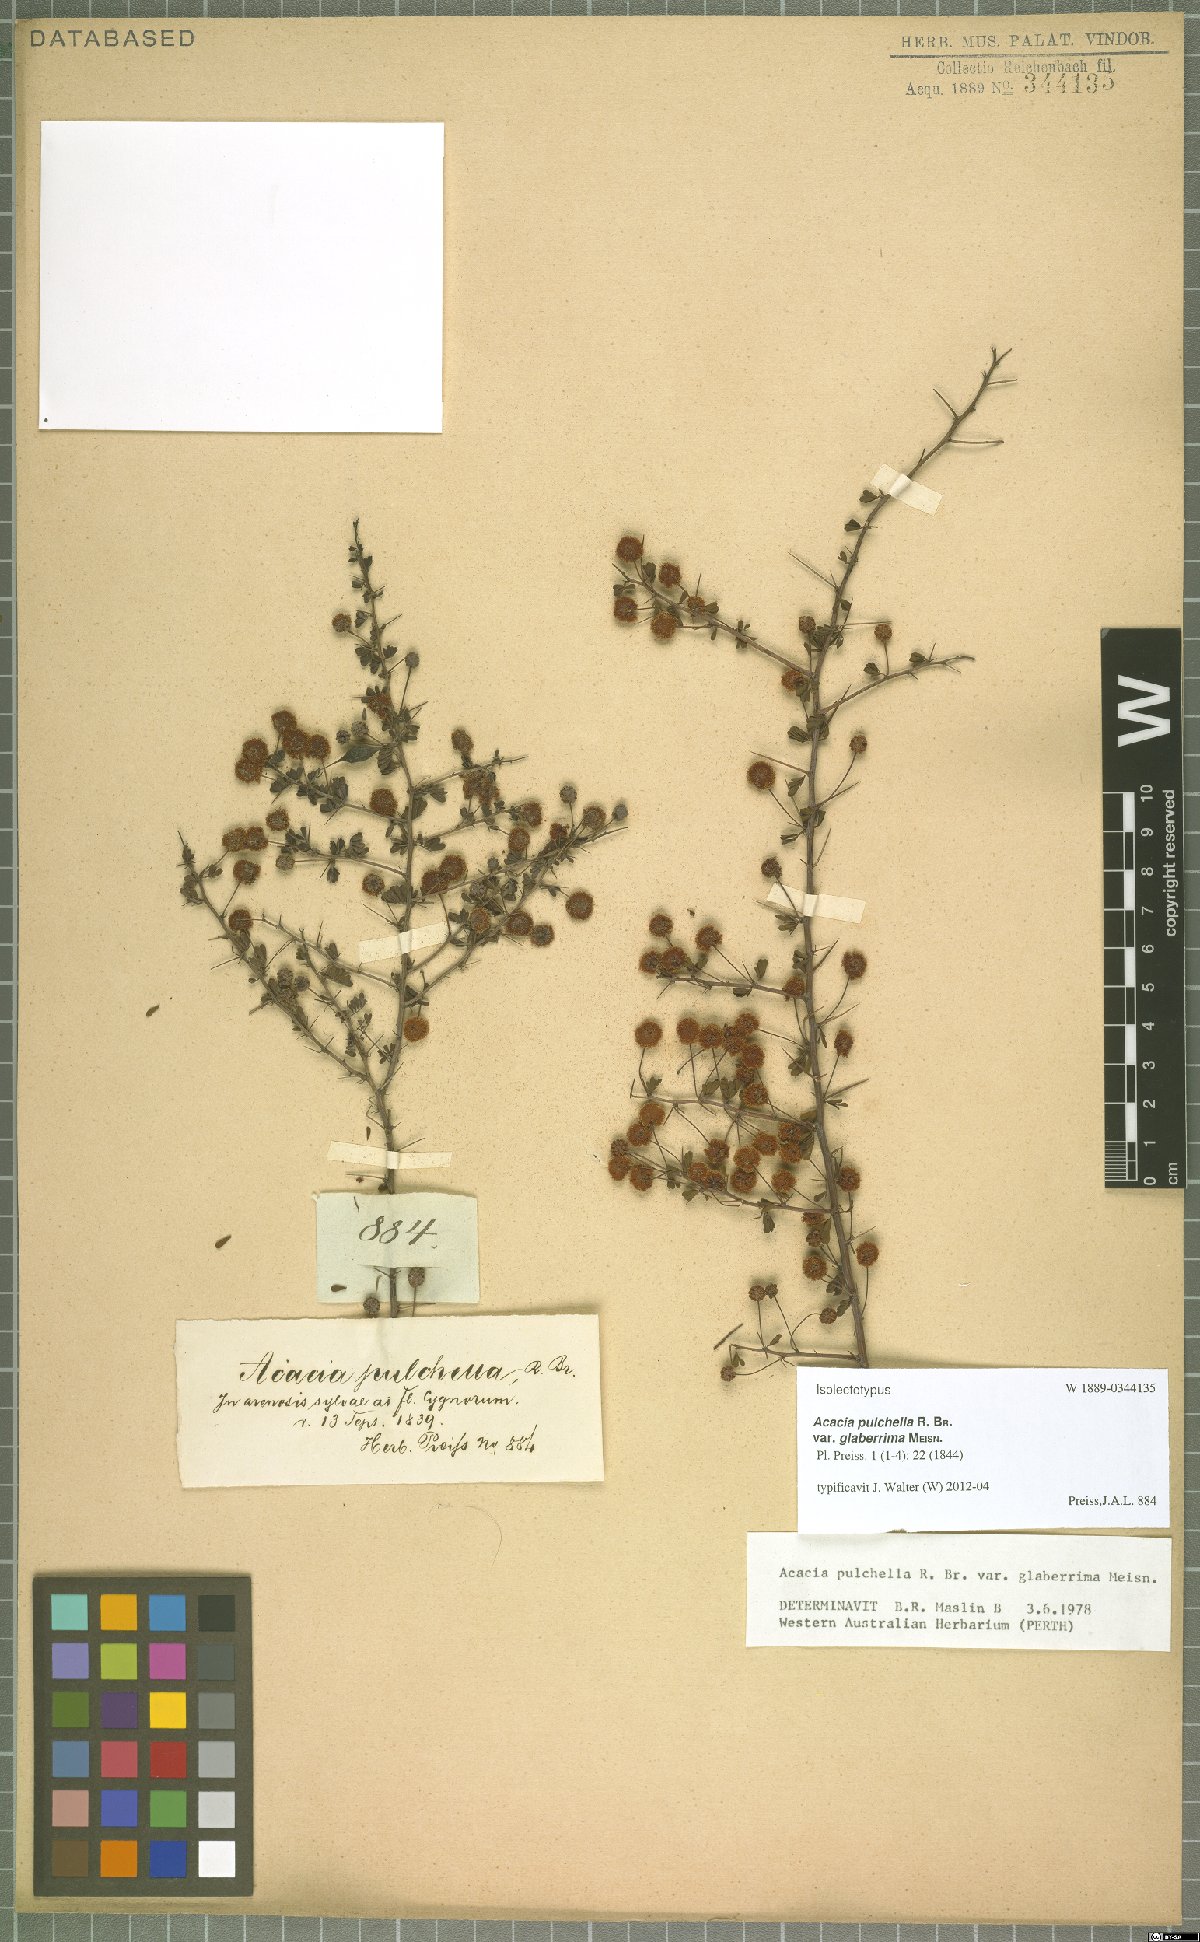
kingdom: Plantae
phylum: Tracheophyta
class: Magnoliopsida
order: Fabales
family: Fabaceae
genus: Acacia
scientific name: Acacia pulchella
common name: Prickly moses
